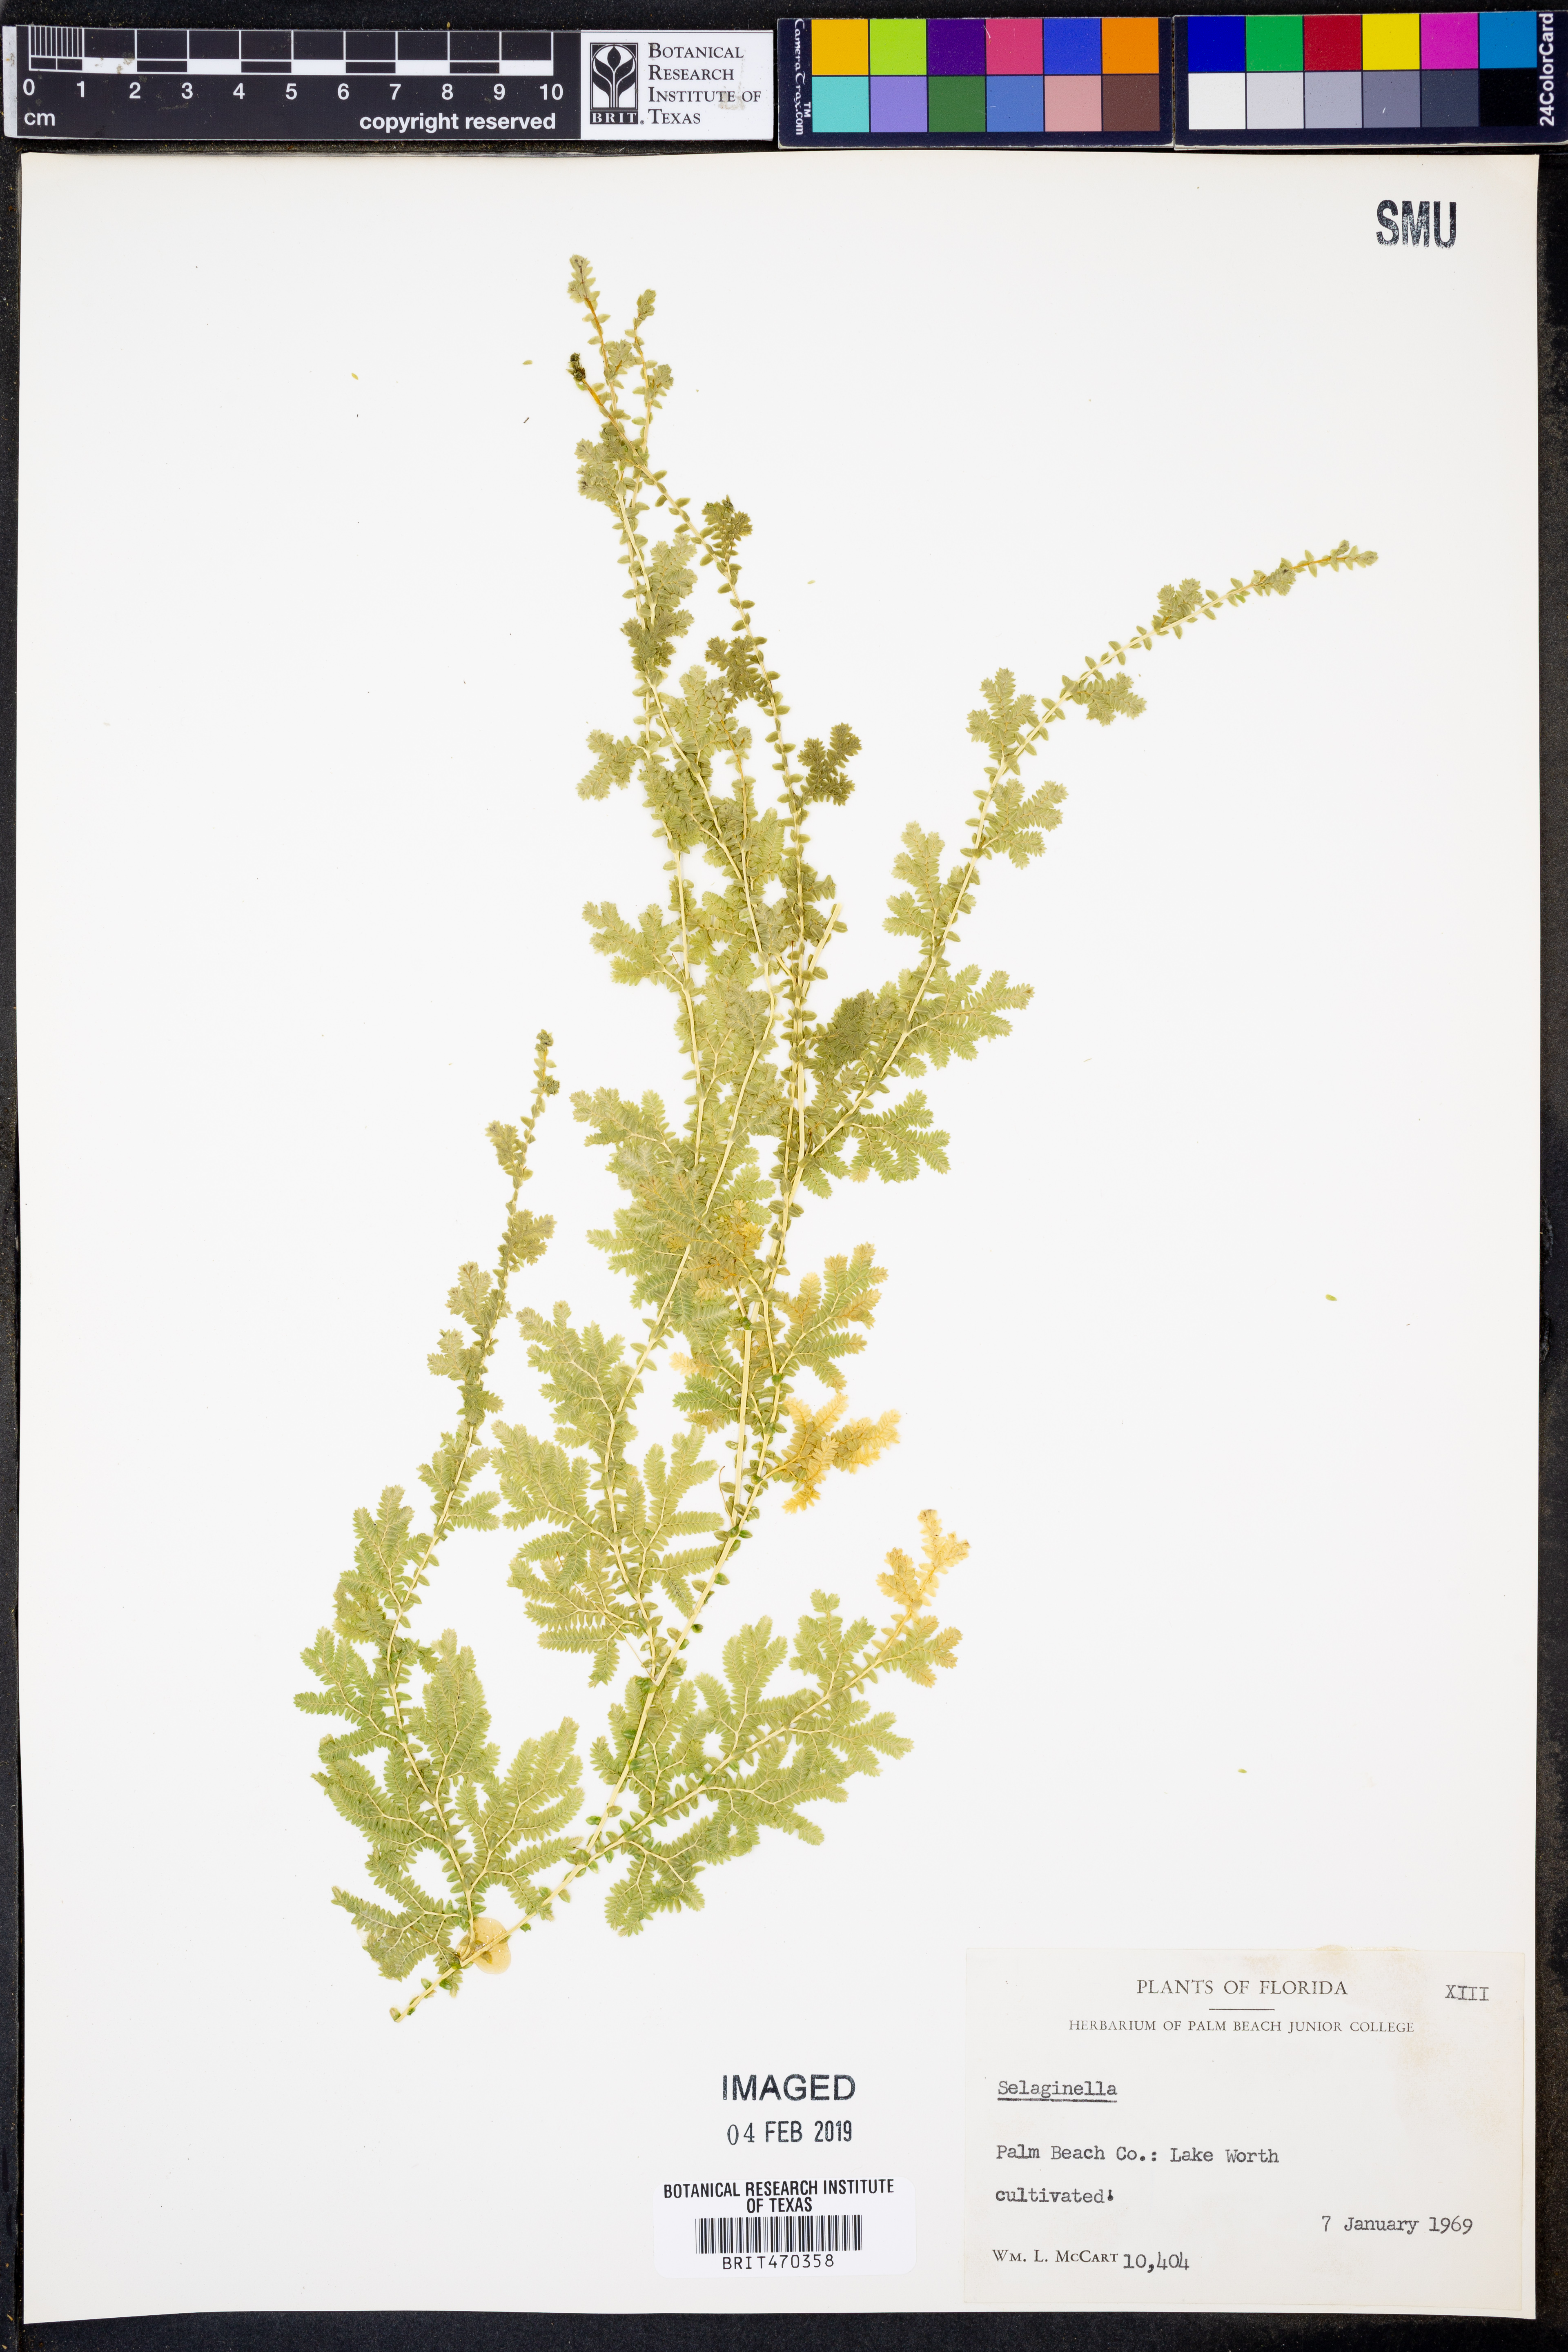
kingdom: Plantae
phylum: Tracheophyta
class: Lycopodiopsida
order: Selaginellales
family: Selaginellaceae
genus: Selaginella
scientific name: Selaginella
